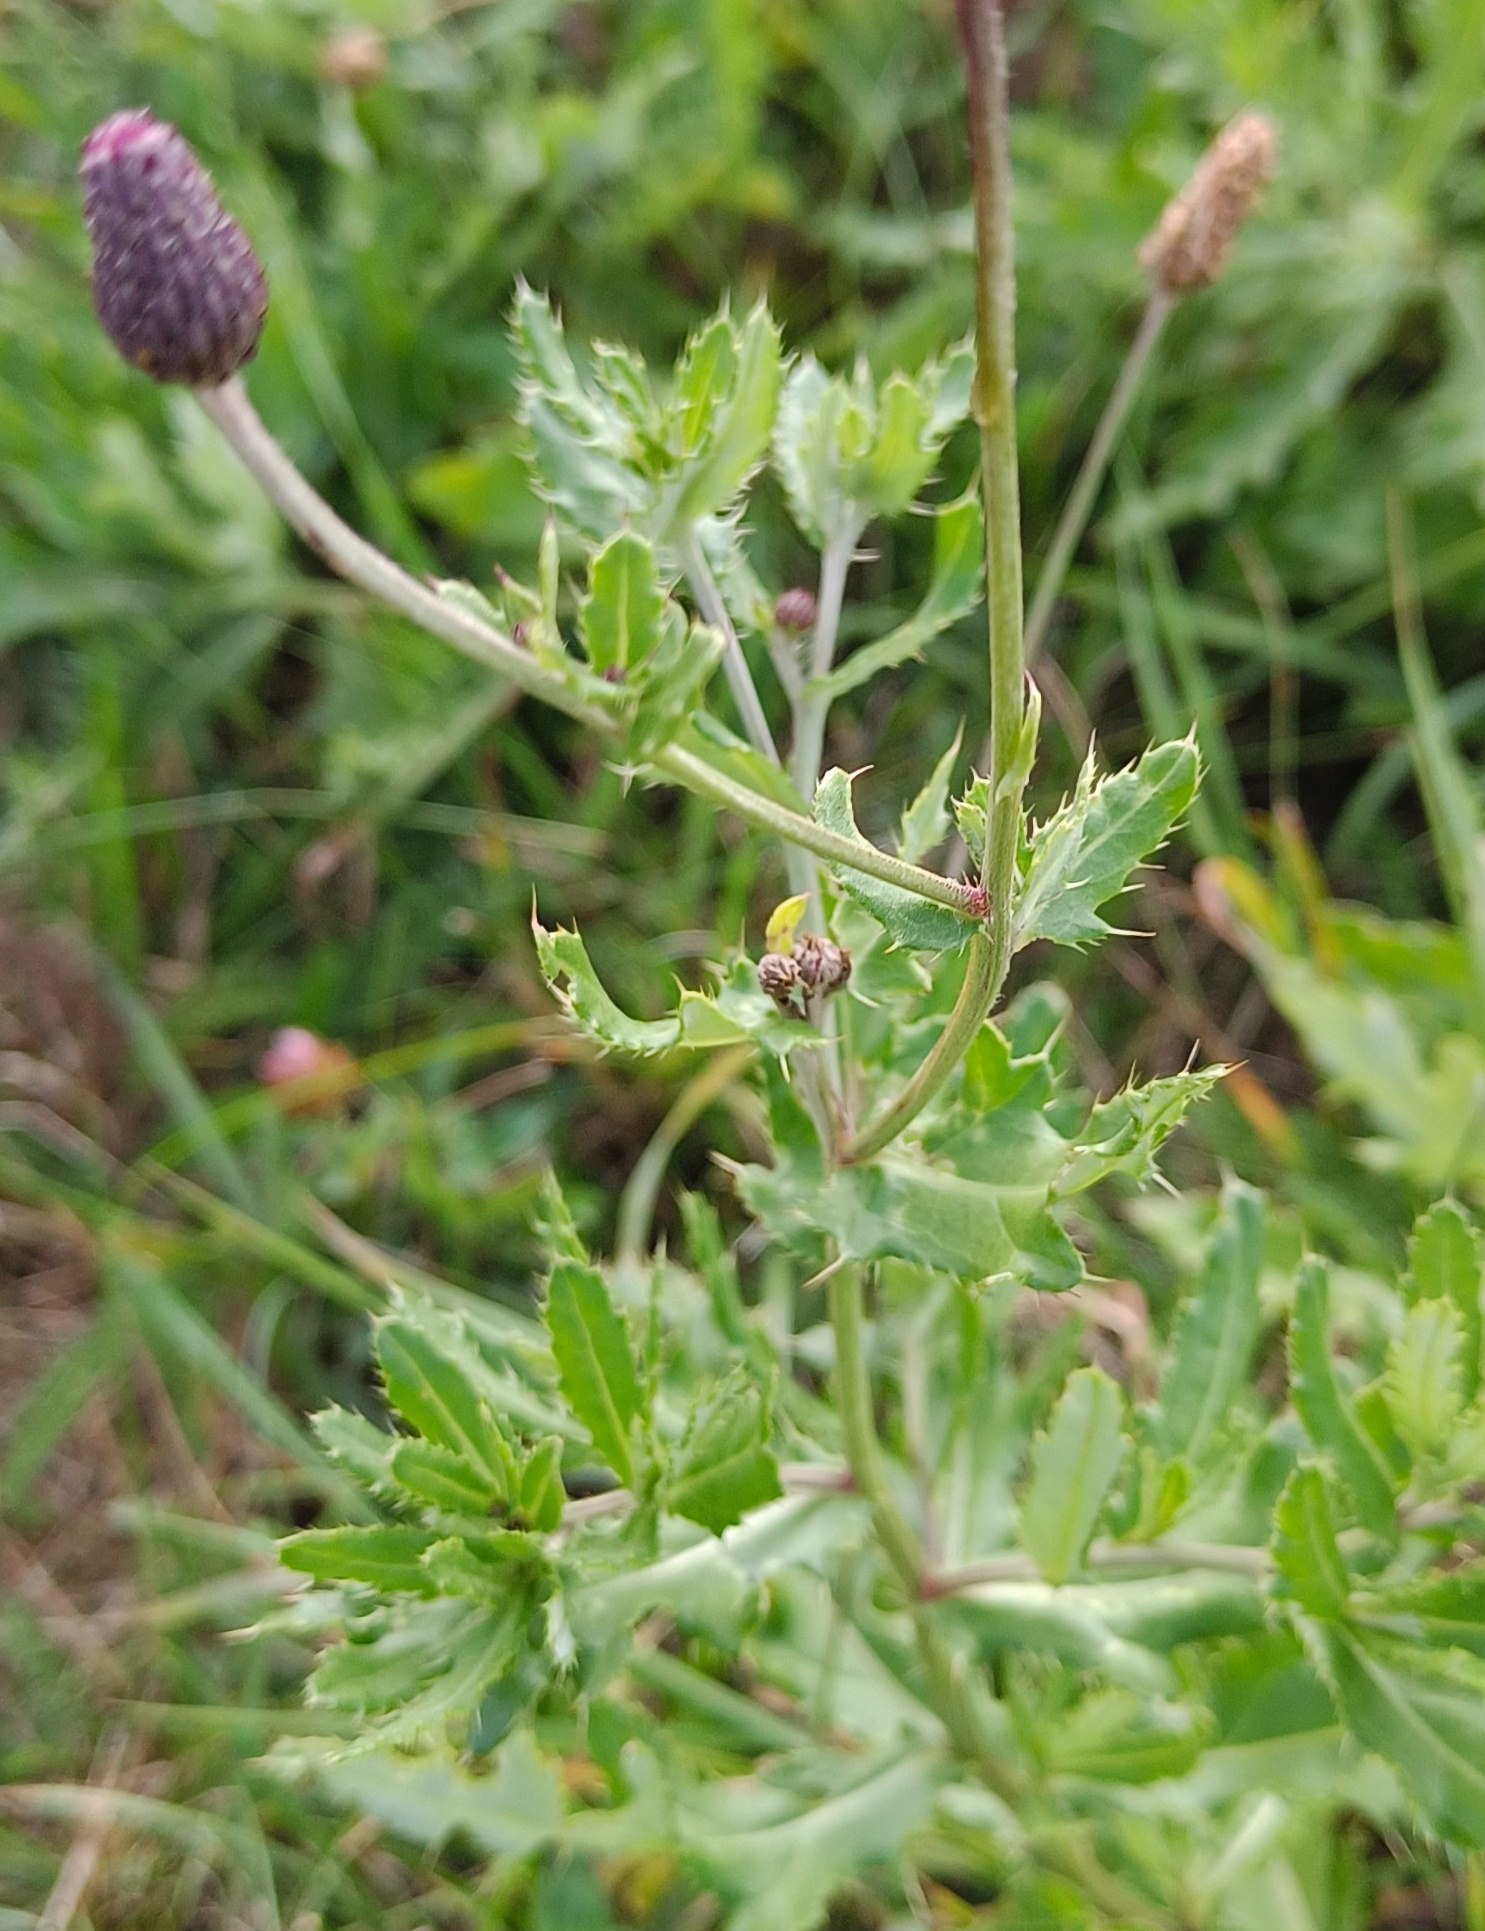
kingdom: Plantae
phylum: Tracheophyta
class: Magnoliopsida
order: Asterales
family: Asteraceae
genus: Cirsium
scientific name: Cirsium arvense
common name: Ager-tidsel
